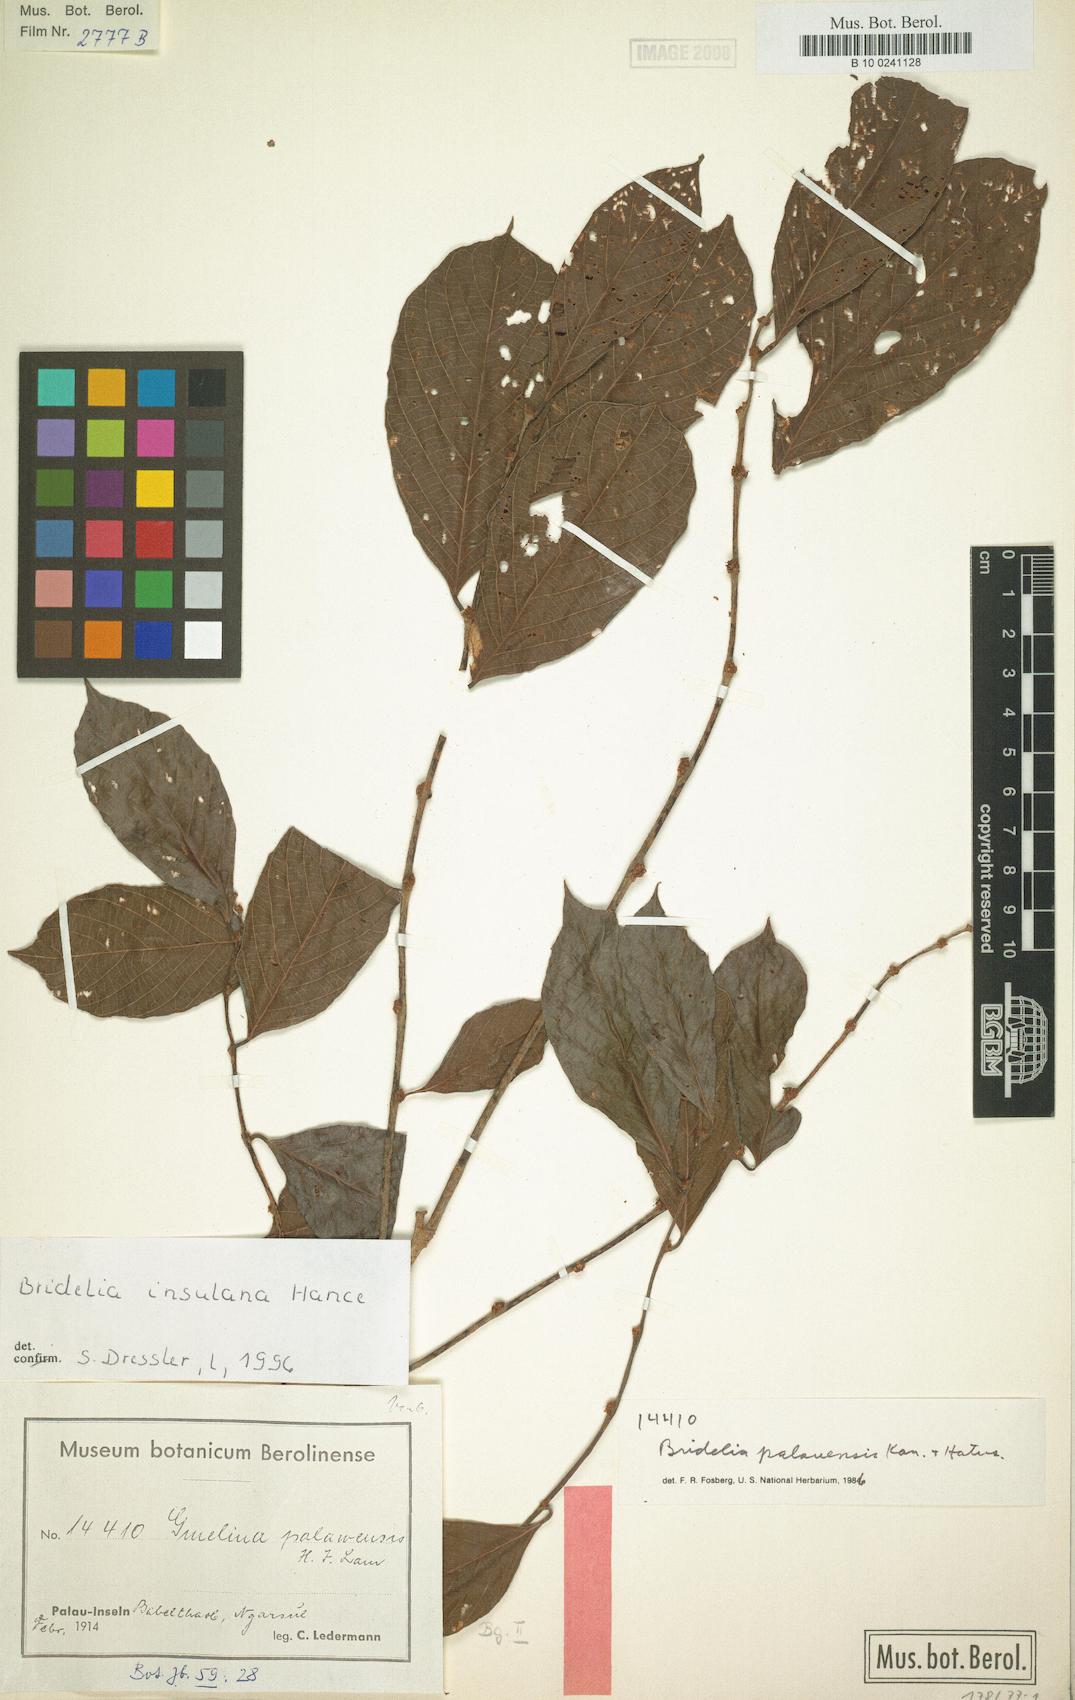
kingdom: Plantae
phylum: Tracheophyta
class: Magnoliopsida
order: Malpighiales
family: Phyllanthaceae
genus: Bridelia
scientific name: Bridelia insulana
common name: Grey-birch
